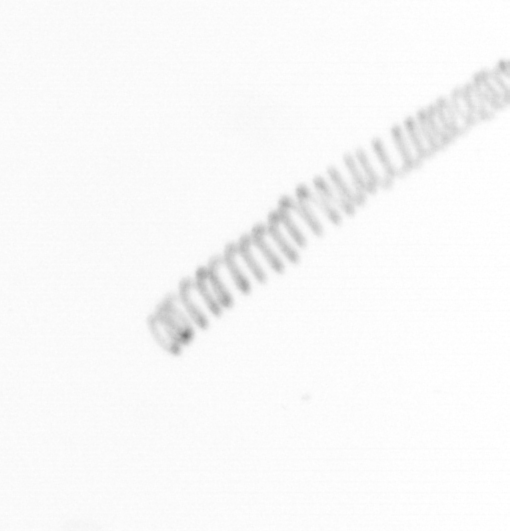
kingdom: Chromista
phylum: Ochrophyta
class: Bacillariophyceae
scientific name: Bacillariophyceae
